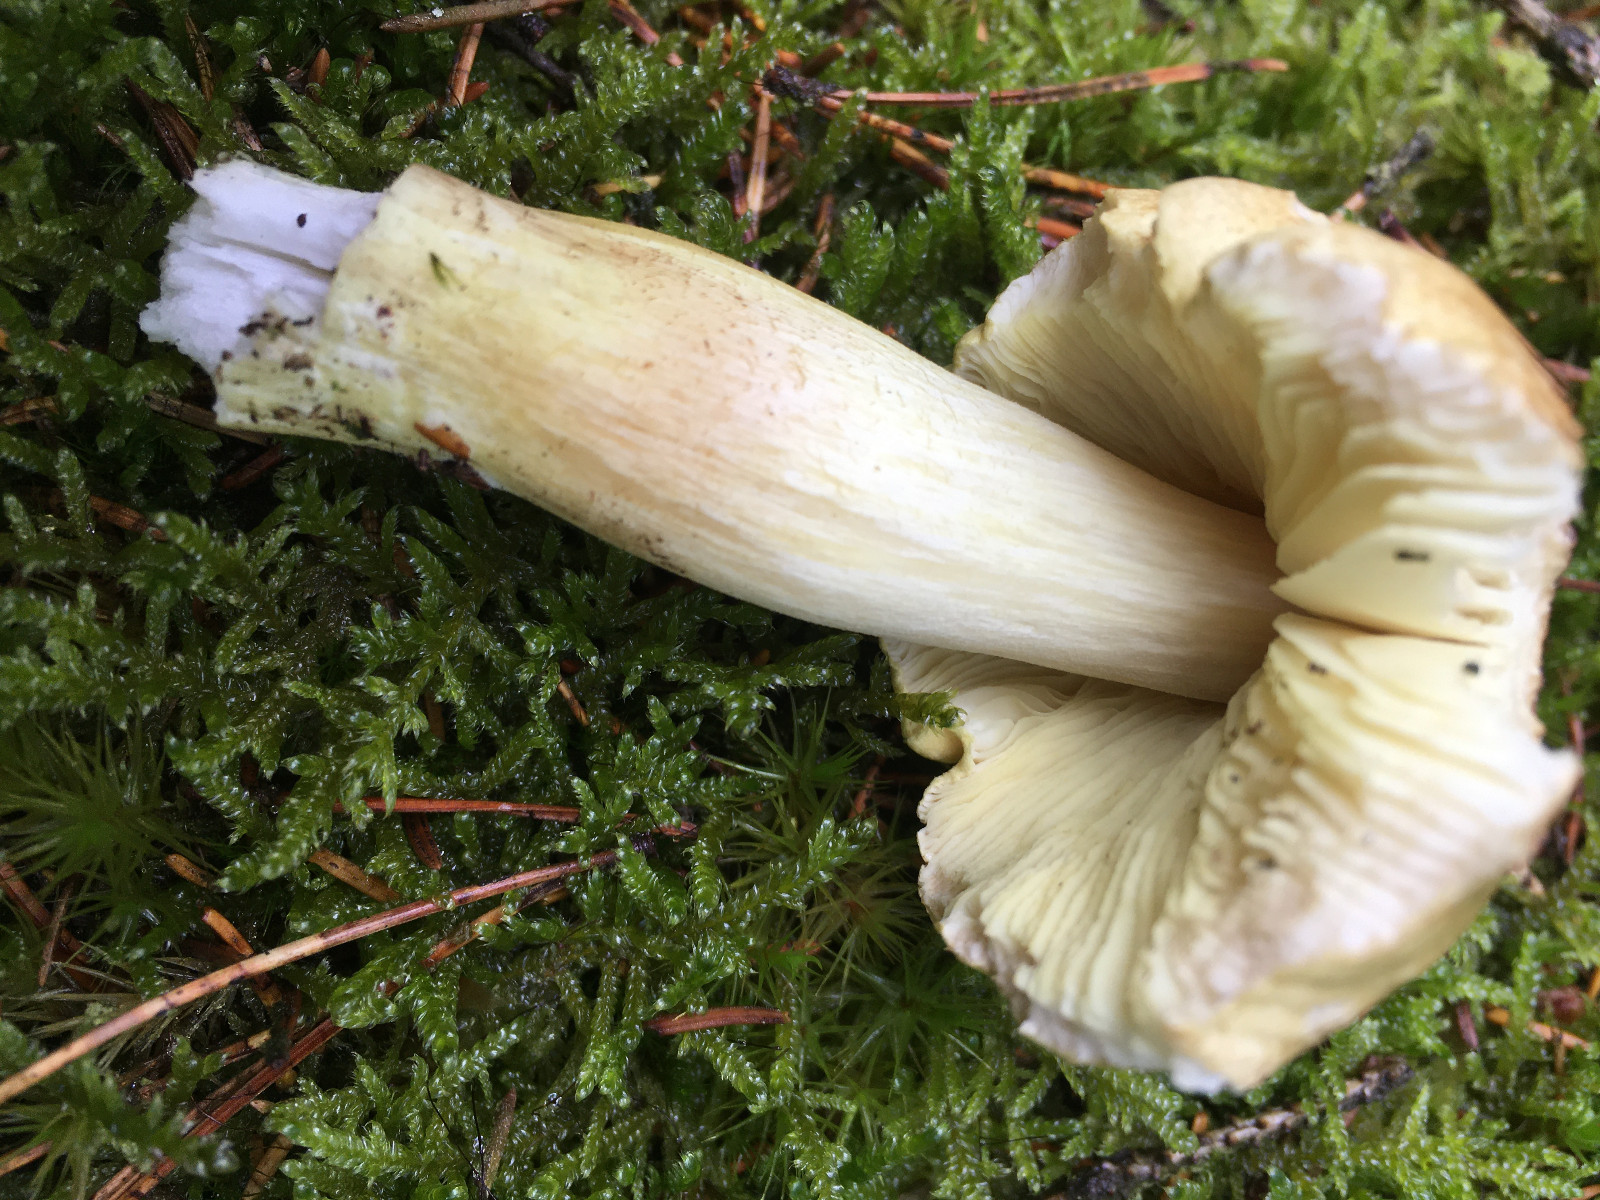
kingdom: Fungi
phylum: Basidiomycota
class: Agaricomycetes
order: Agaricales
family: Tricholomataceae
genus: Tricholoma
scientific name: Tricholoma equestre
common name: ægte ridderhat
